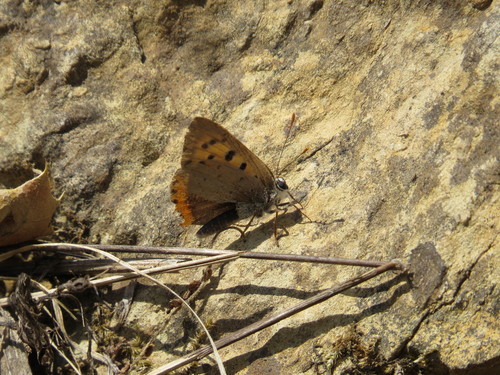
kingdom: Animalia
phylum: Arthropoda
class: Insecta
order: Lepidoptera
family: Lycaenidae
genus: Lycaena
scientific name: Lycaena phlaeas
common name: Small copper
